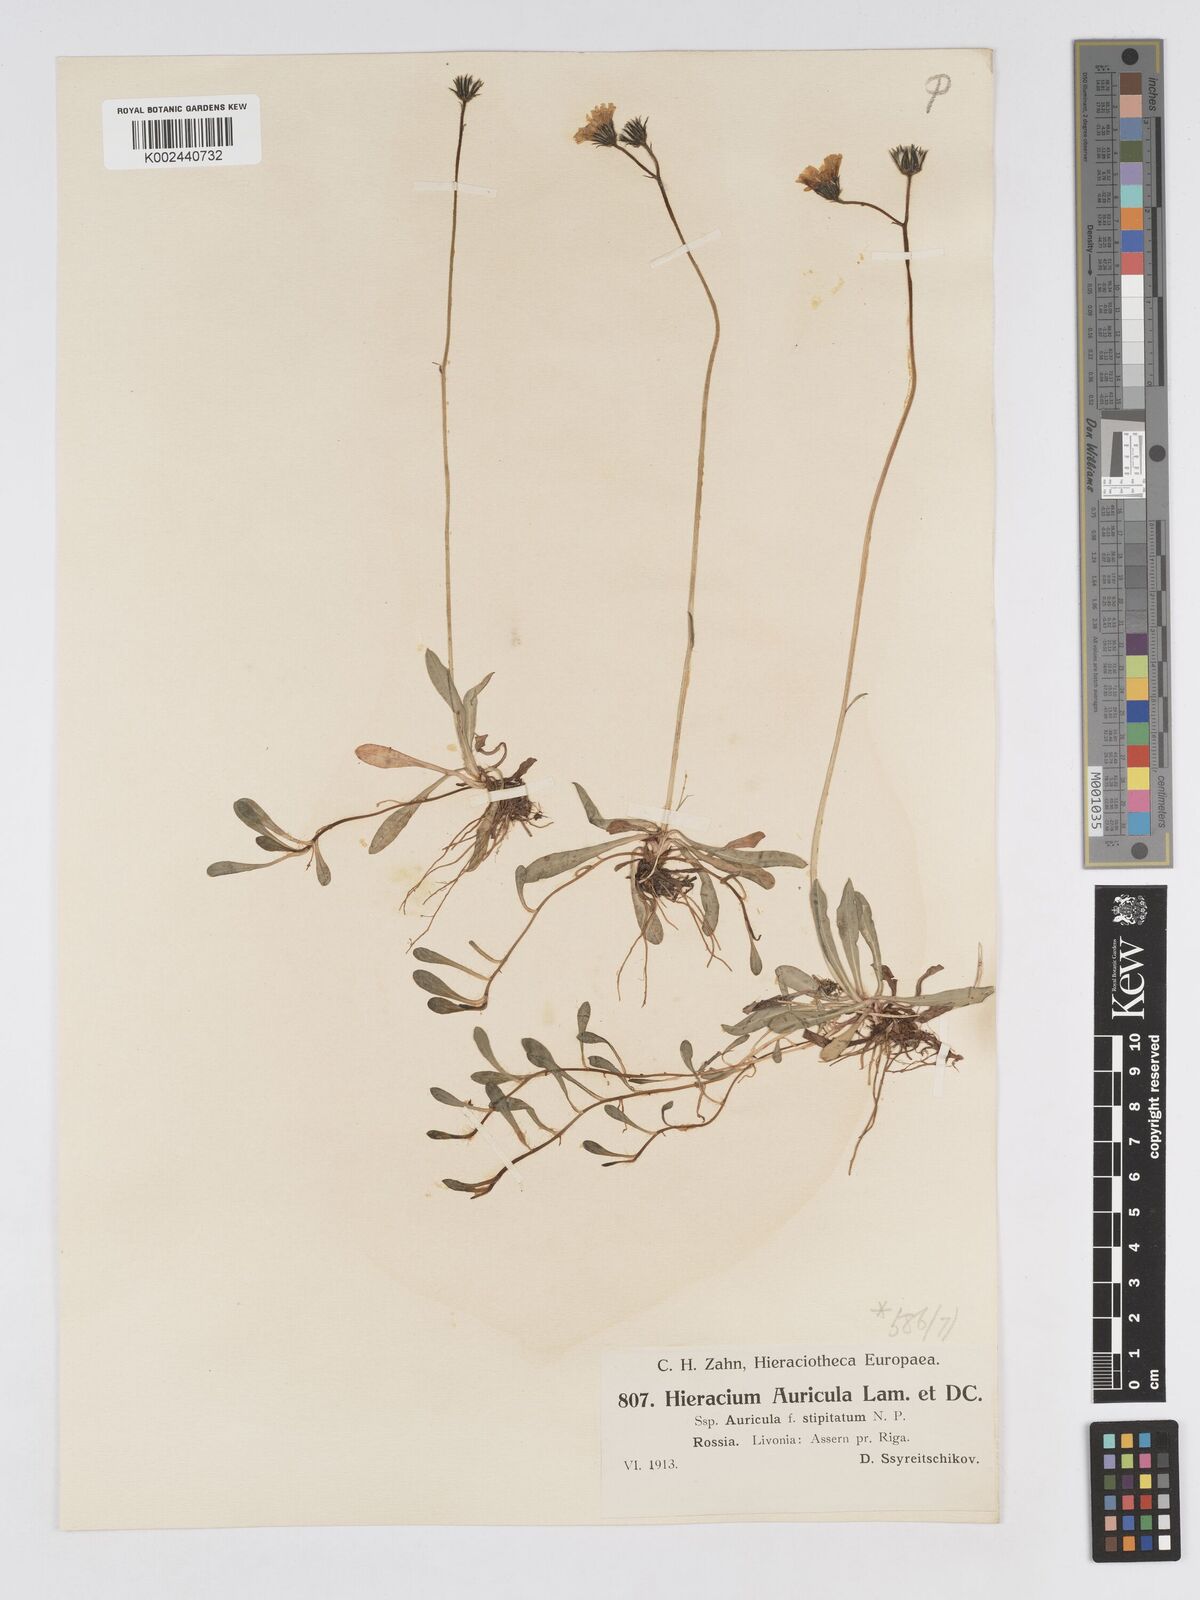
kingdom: Plantae
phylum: Tracheophyta
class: Magnoliopsida
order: Asterales
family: Asteraceae
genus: Pilosella
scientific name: Pilosella floribunda
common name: Glaucous hawkweed
